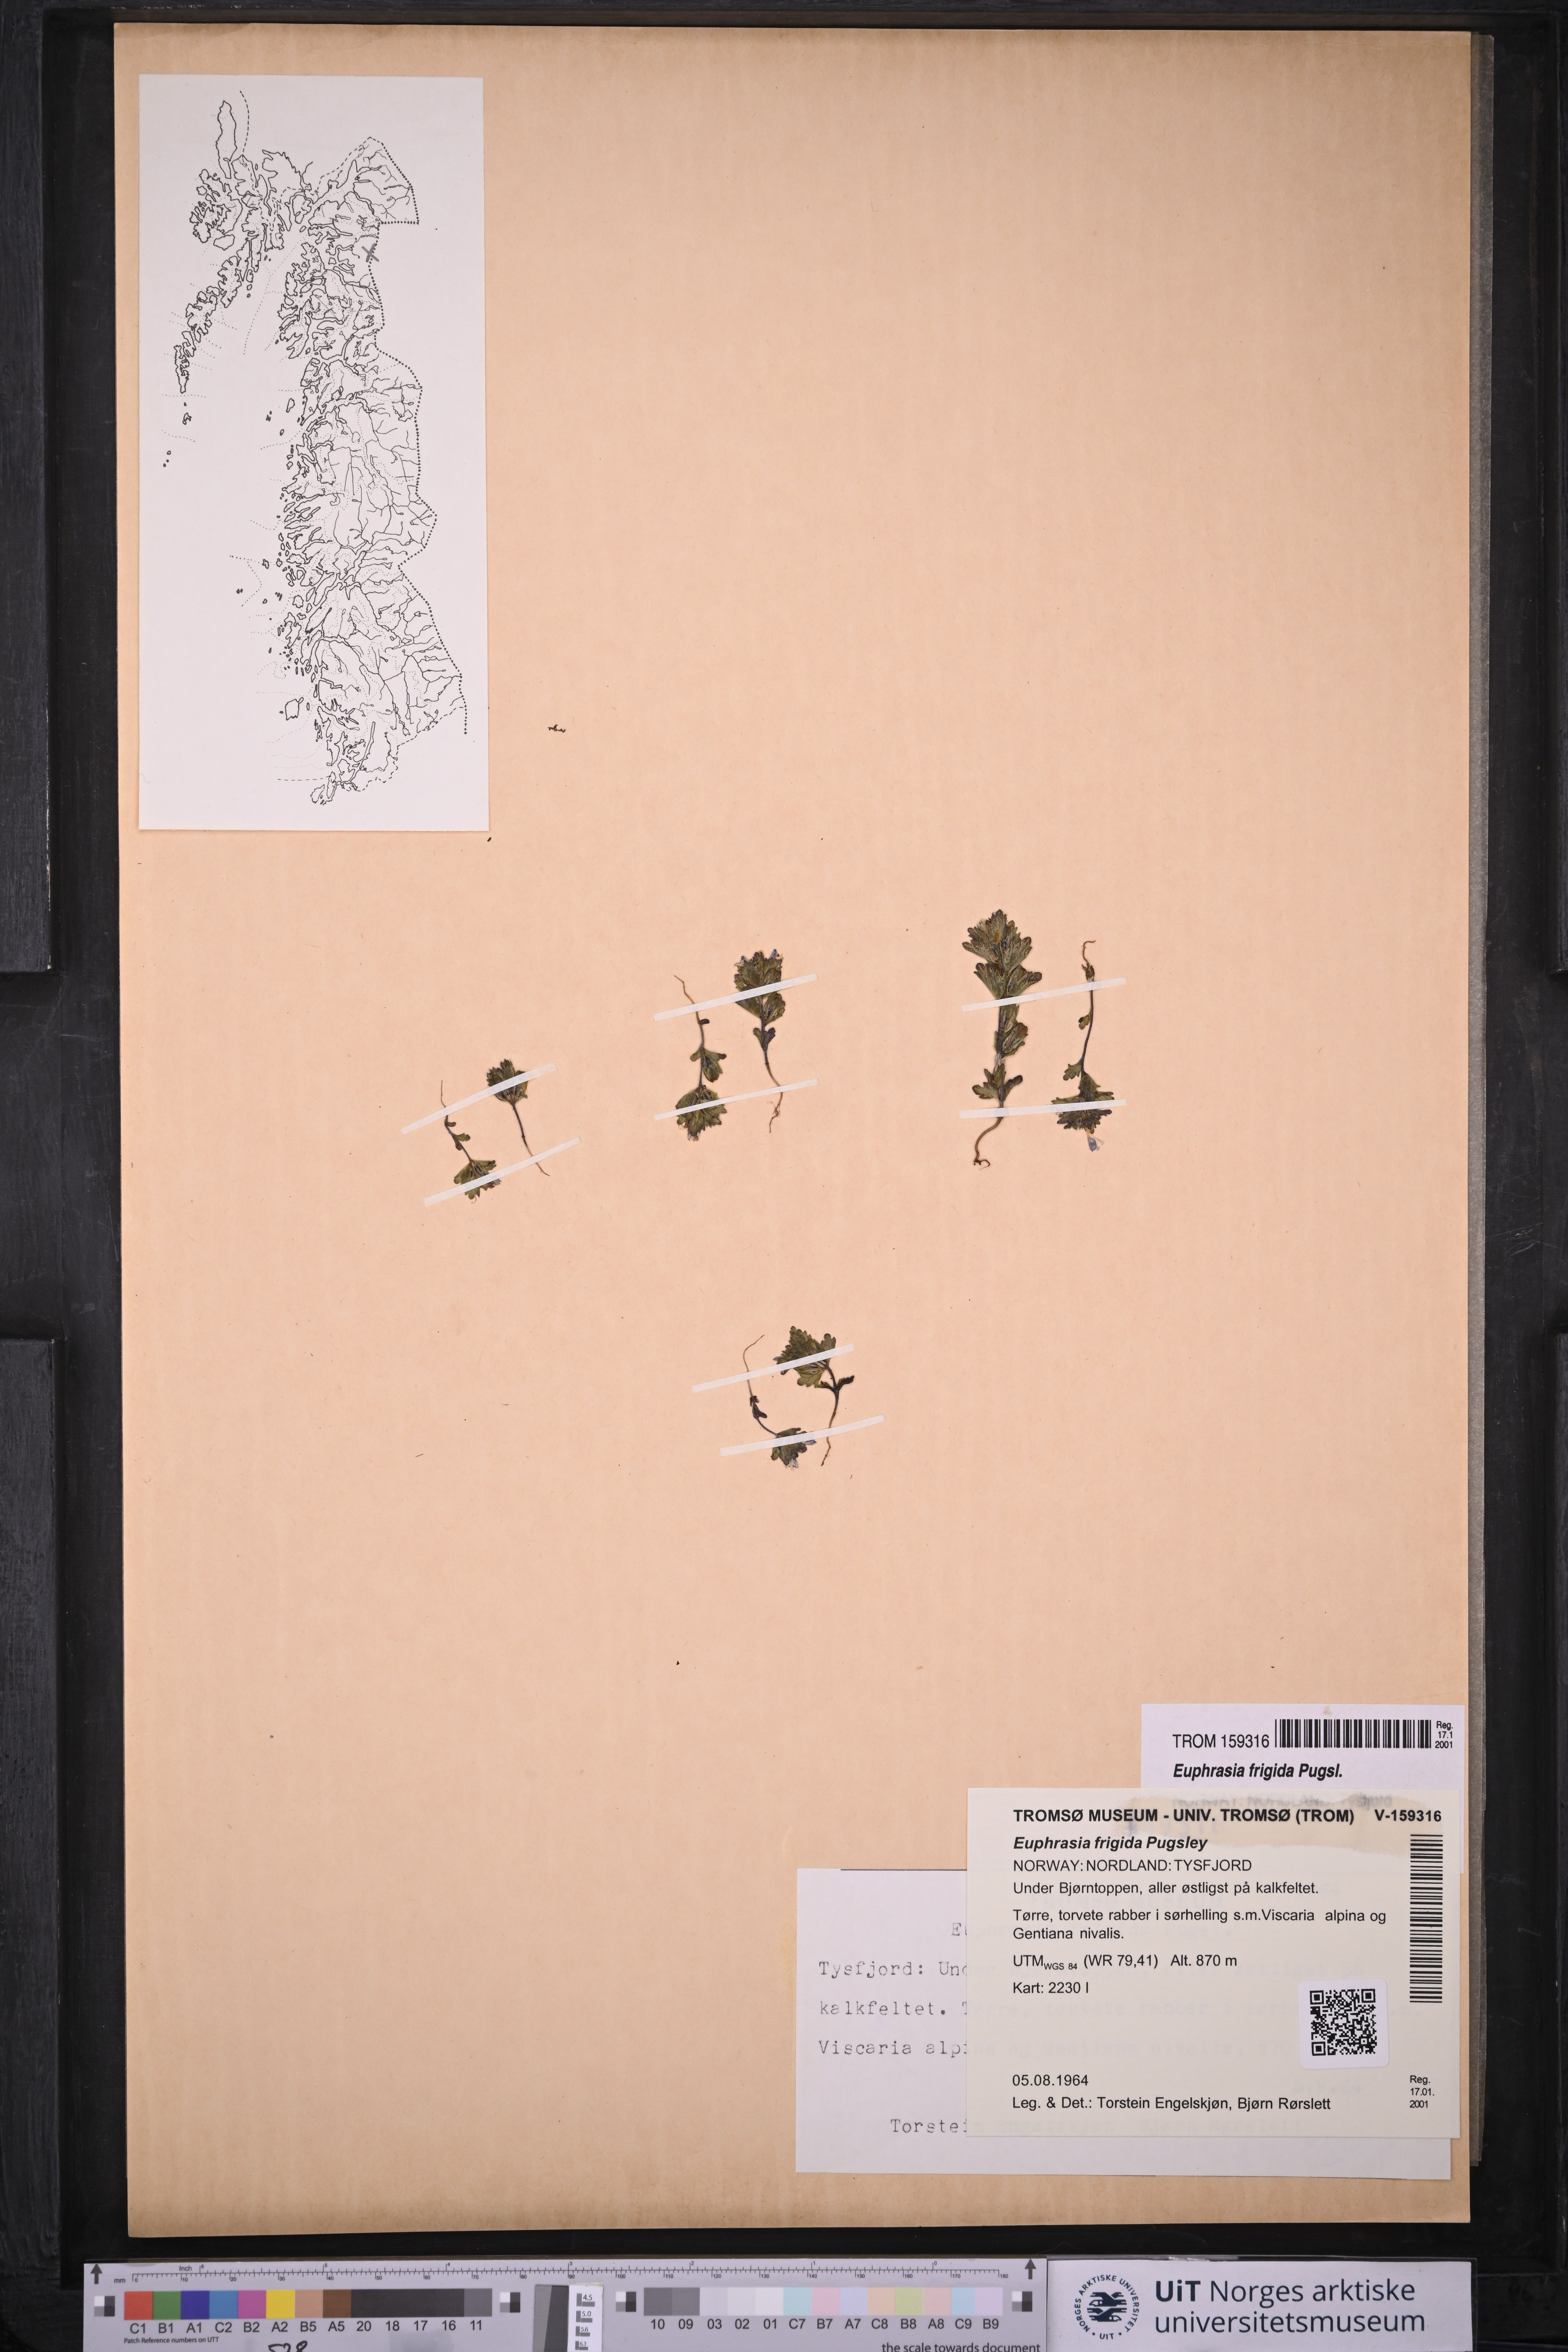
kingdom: Plantae
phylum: Tracheophyta
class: Magnoliopsida
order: Lamiales
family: Orobanchaceae
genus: Euphrasia
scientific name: Euphrasia frigida
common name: An eyebright
